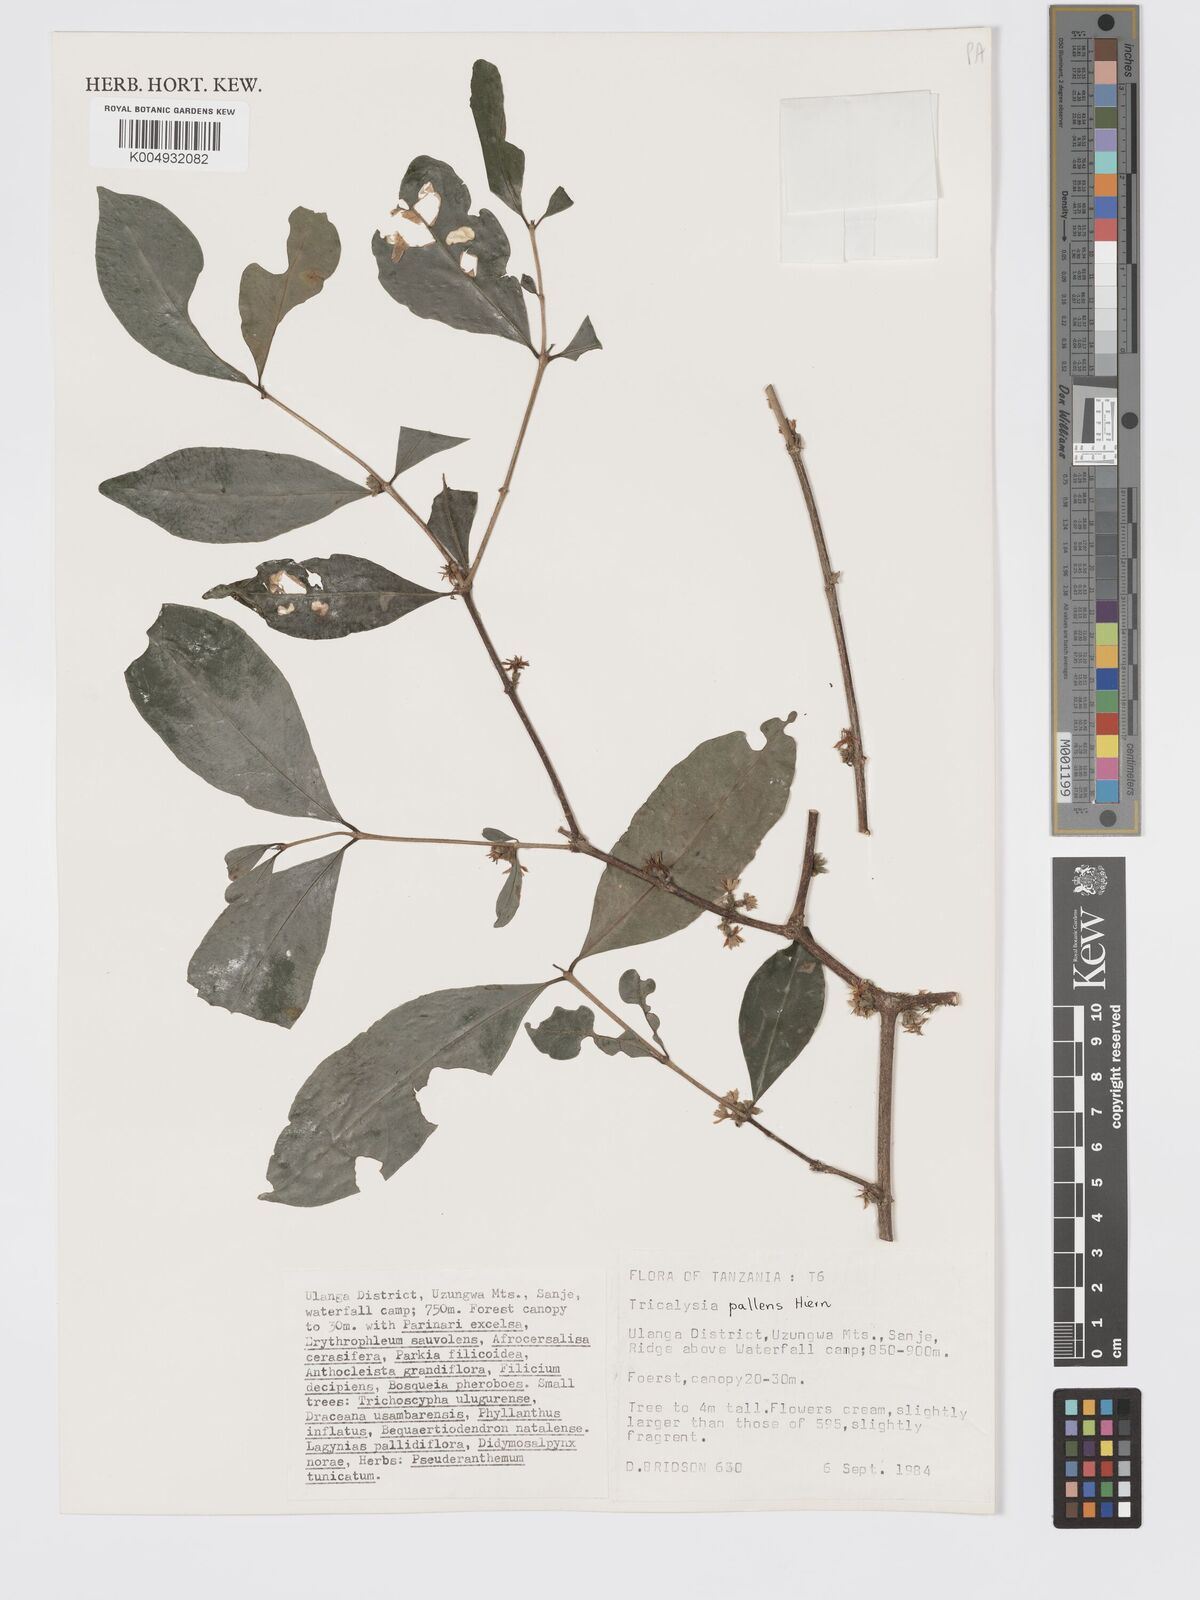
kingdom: Plantae
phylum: Tracheophyta
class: Magnoliopsida
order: Gentianales
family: Rubiaceae
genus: Tricalysia
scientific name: Tricalysia pallens
